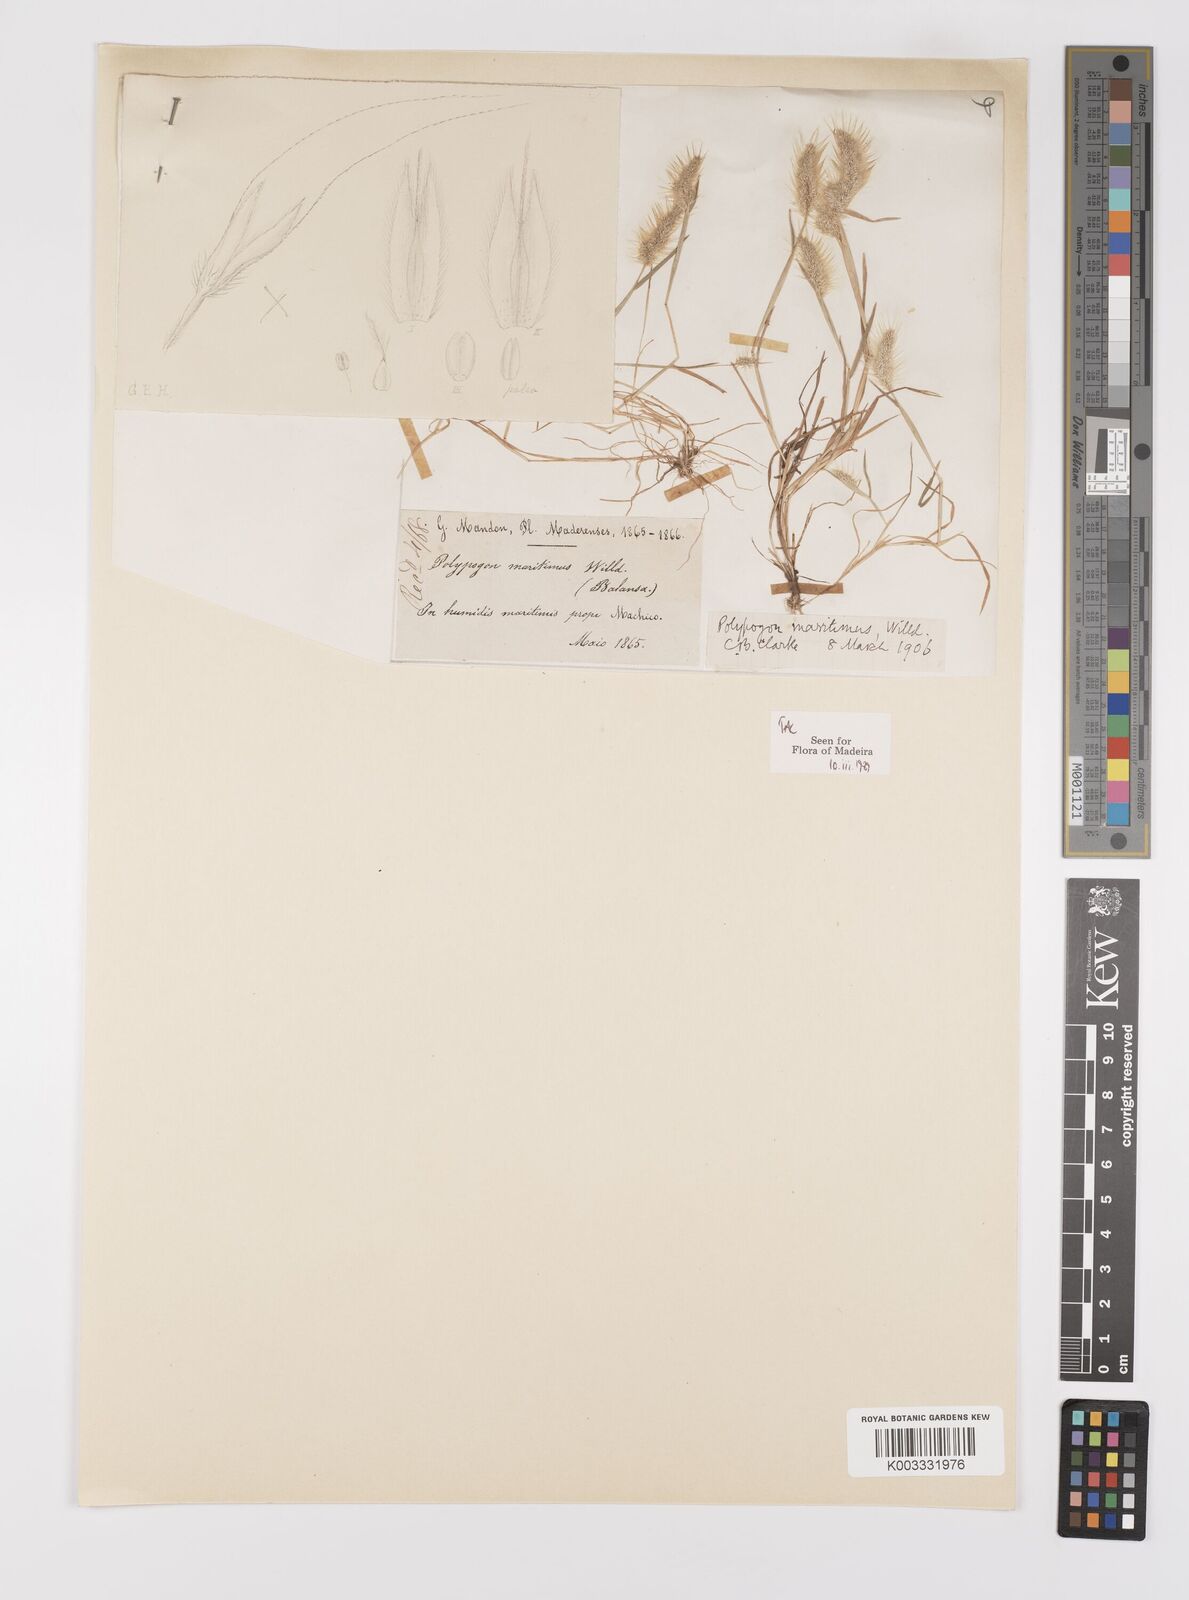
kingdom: Plantae
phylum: Tracheophyta
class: Liliopsida
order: Poales
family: Poaceae
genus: Polypogon
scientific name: Polypogon maritimus
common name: Mediterranean rabbitsfoot grass
